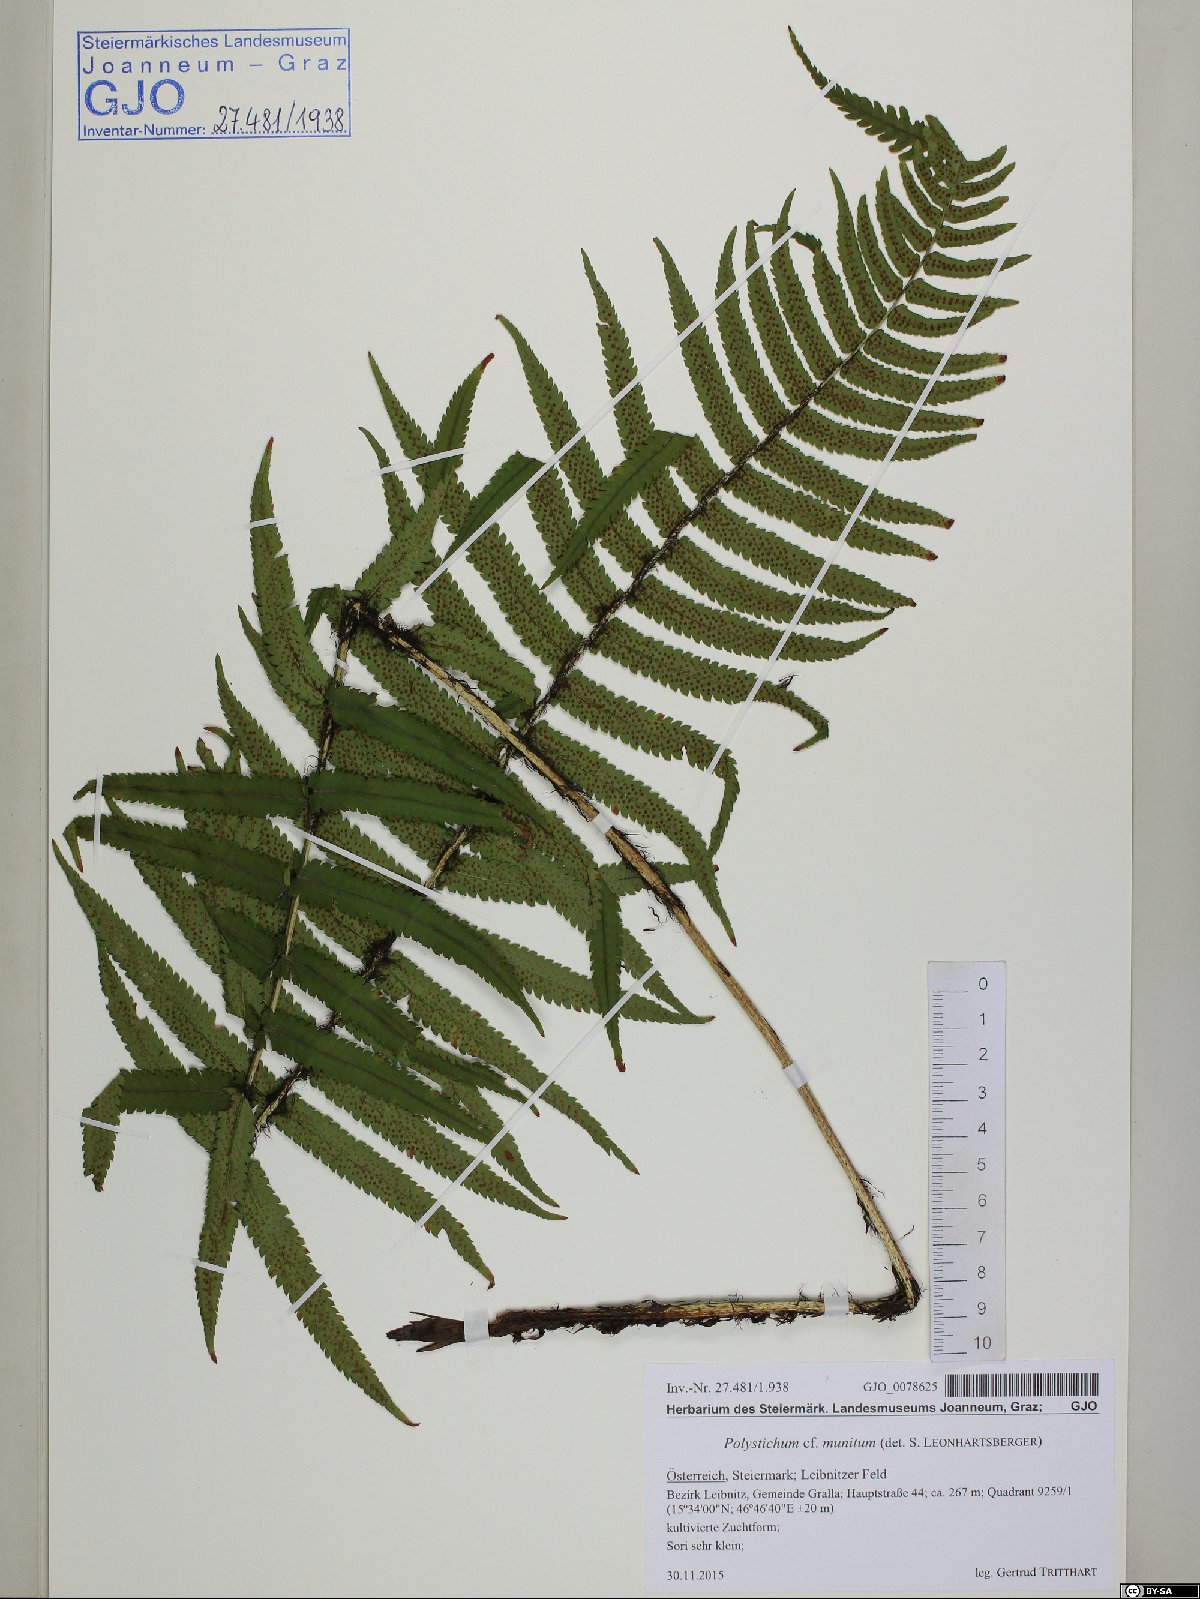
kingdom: Plantae
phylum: Tracheophyta
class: Polypodiopsida
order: Polypodiales
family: Dryopteridaceae
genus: Dryopteris
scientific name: Dryopteris cycadina
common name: Shaggy wood fern
